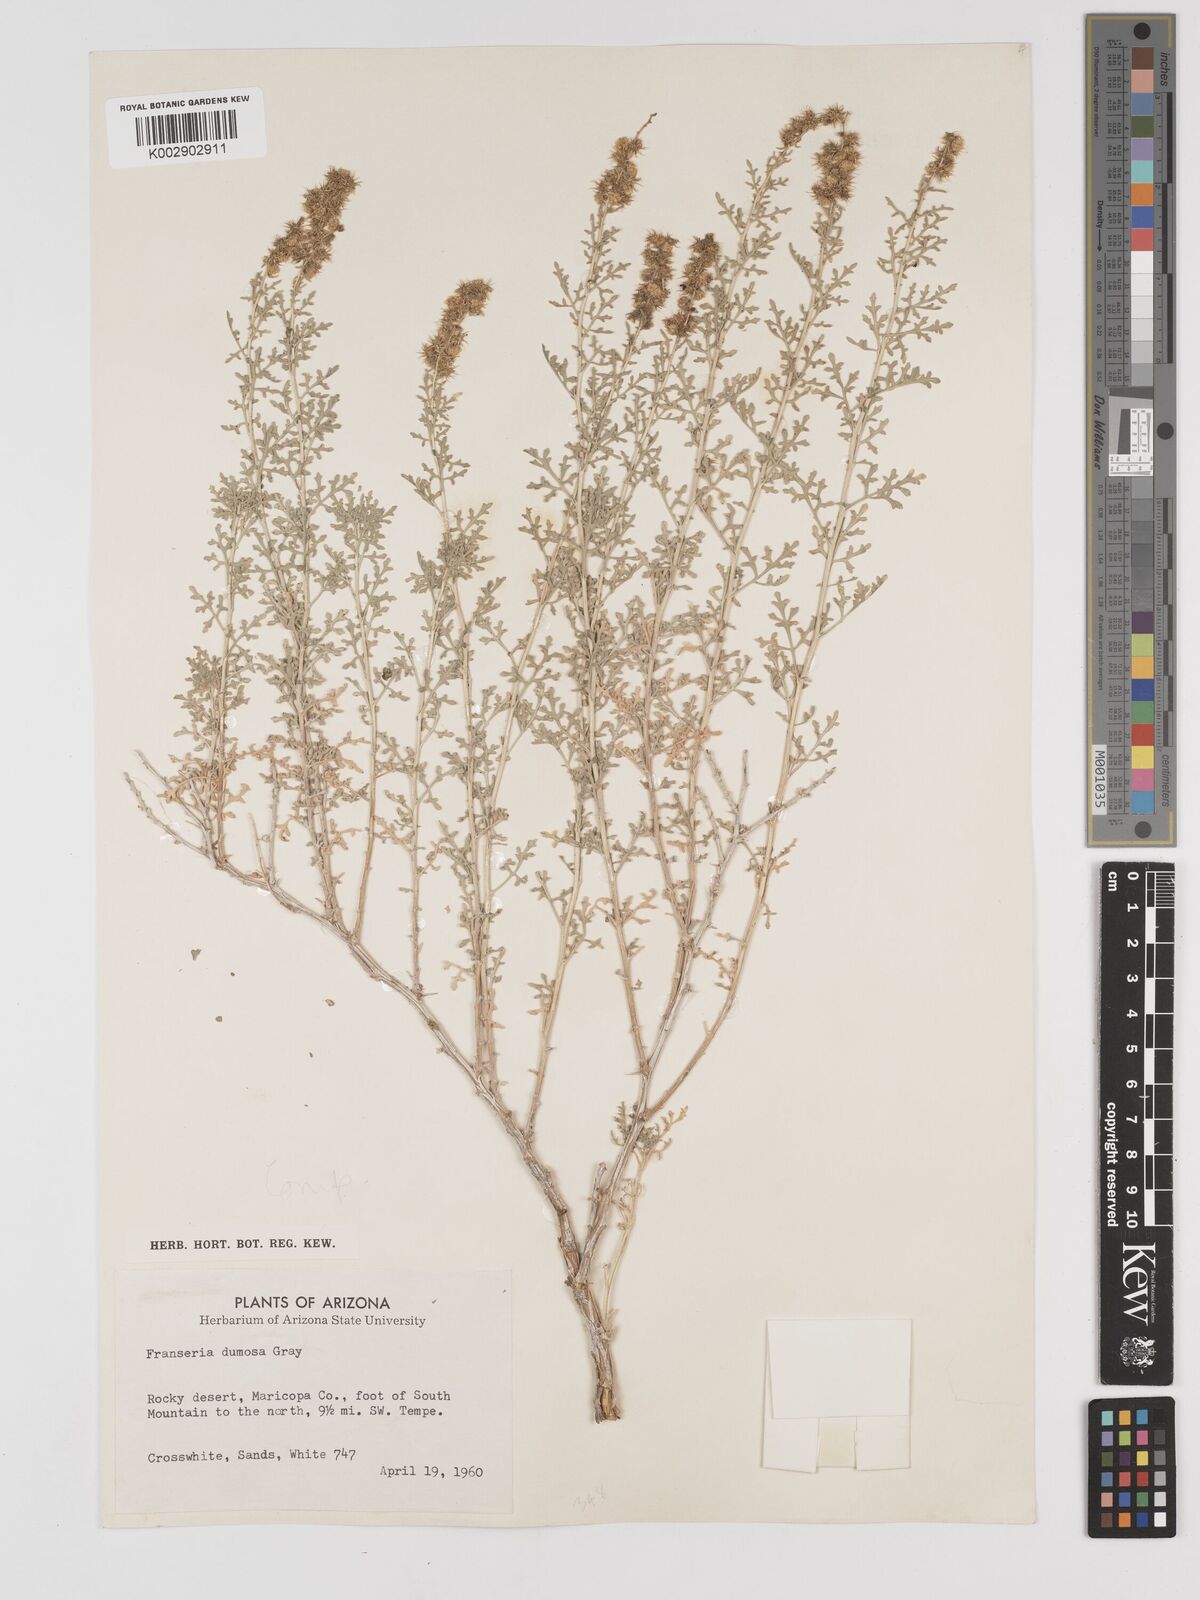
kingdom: Plantae
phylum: Tracheophyta
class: Magnoliopsida
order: Asterales
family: Asteraceae
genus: Ambrosia
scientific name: Ambrosia dumosa
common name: Bur-sage
